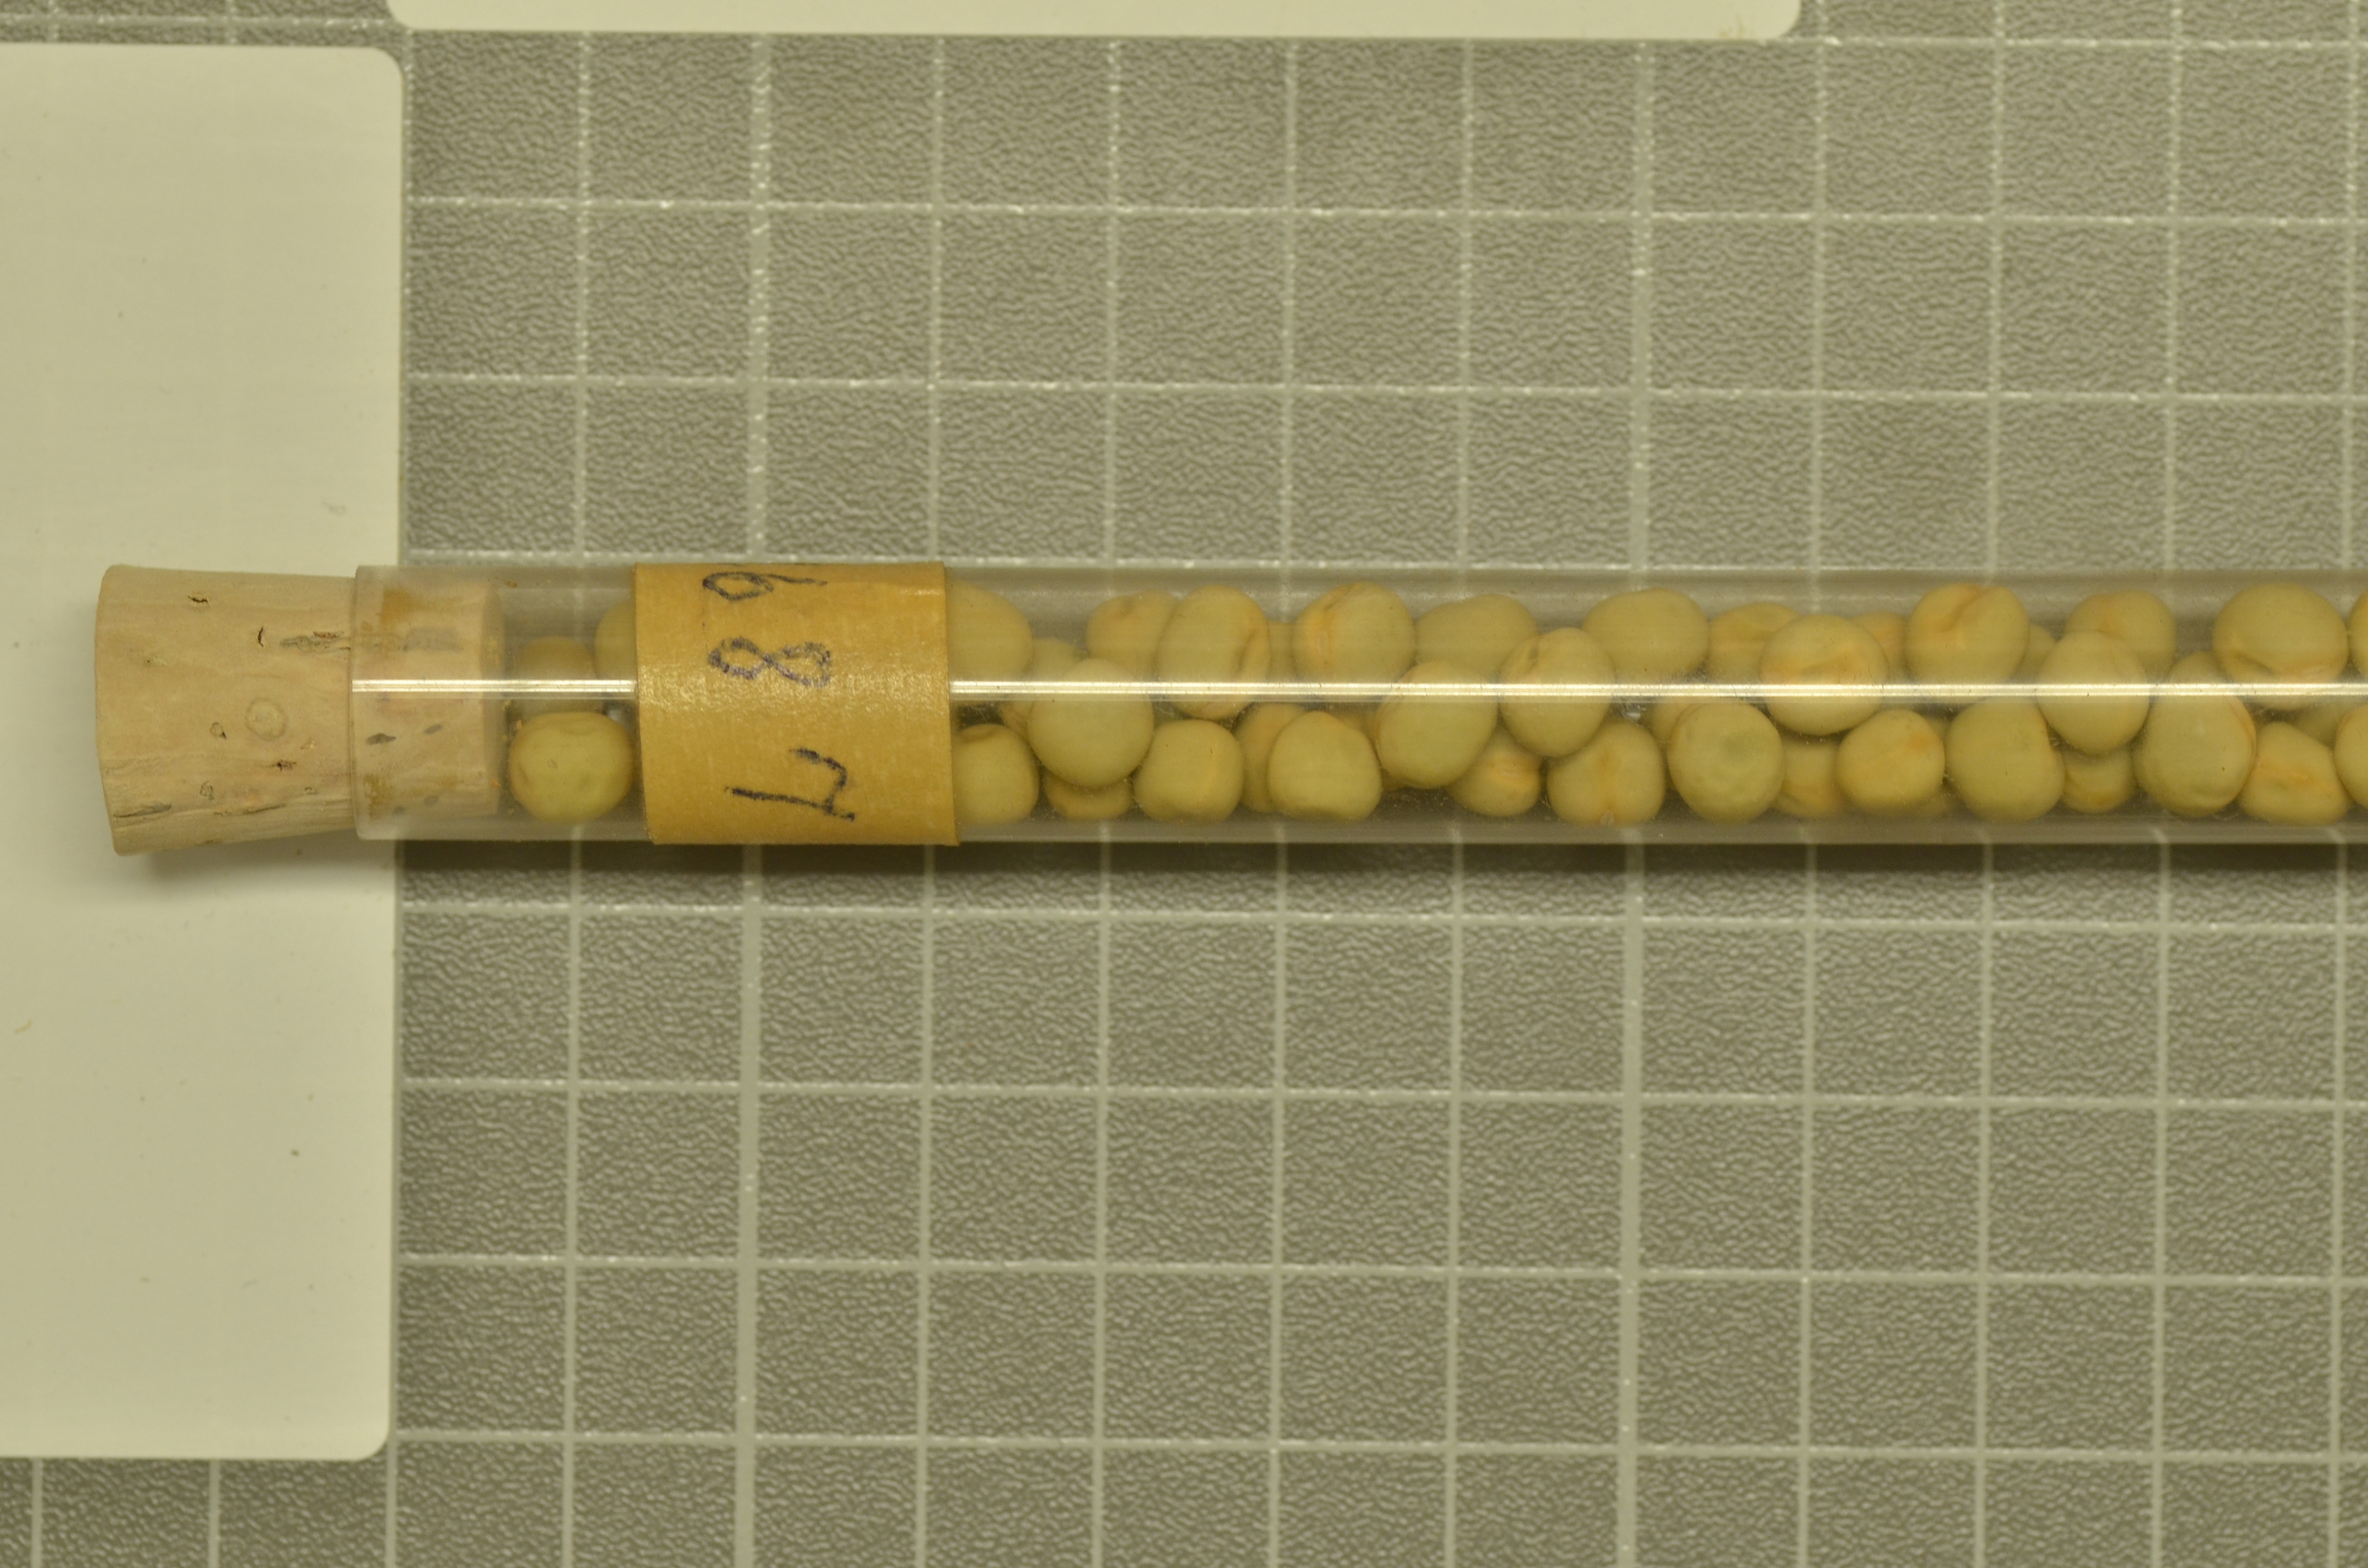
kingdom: Plantae
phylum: Tracheophyta
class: Magnoliopsida
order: Fabales
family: Fabaceae
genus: Lathyrus
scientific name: Lathyrus oleraceus
